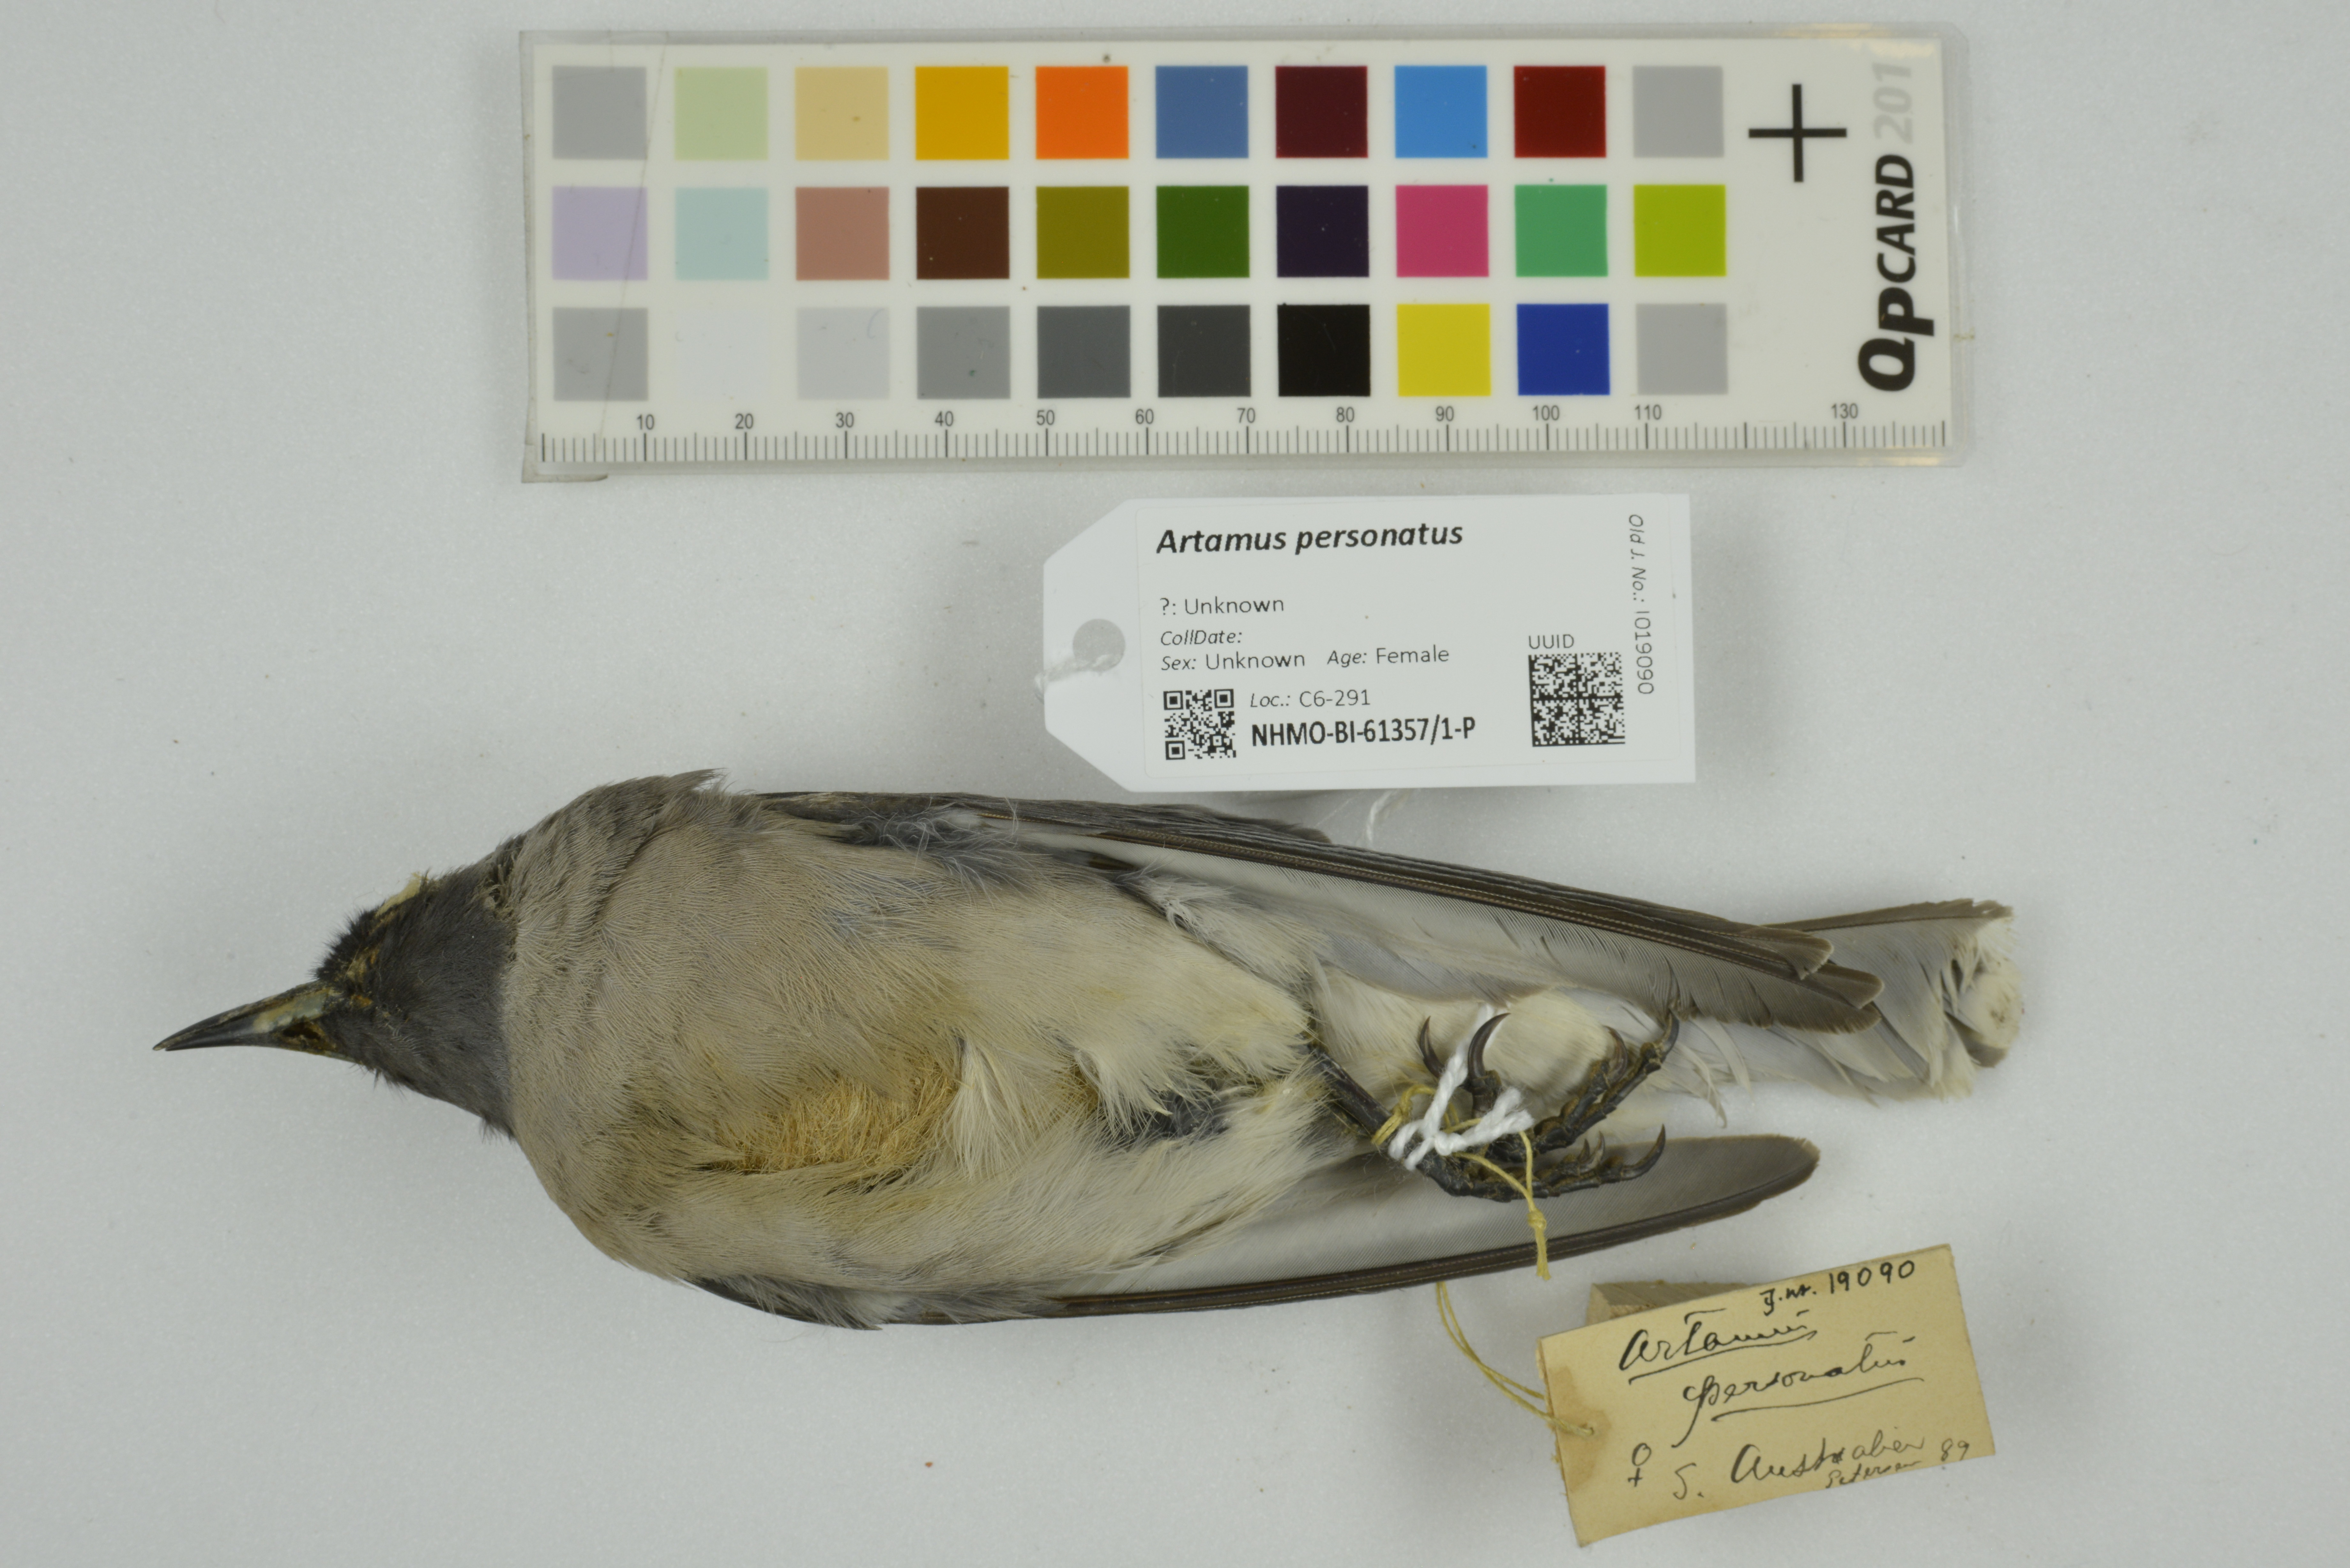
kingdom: Animalia
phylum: Chordata
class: Aves
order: Passeriformes
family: Artamidae
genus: Artamus
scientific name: Artamus personatus
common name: Masked woodswallow
